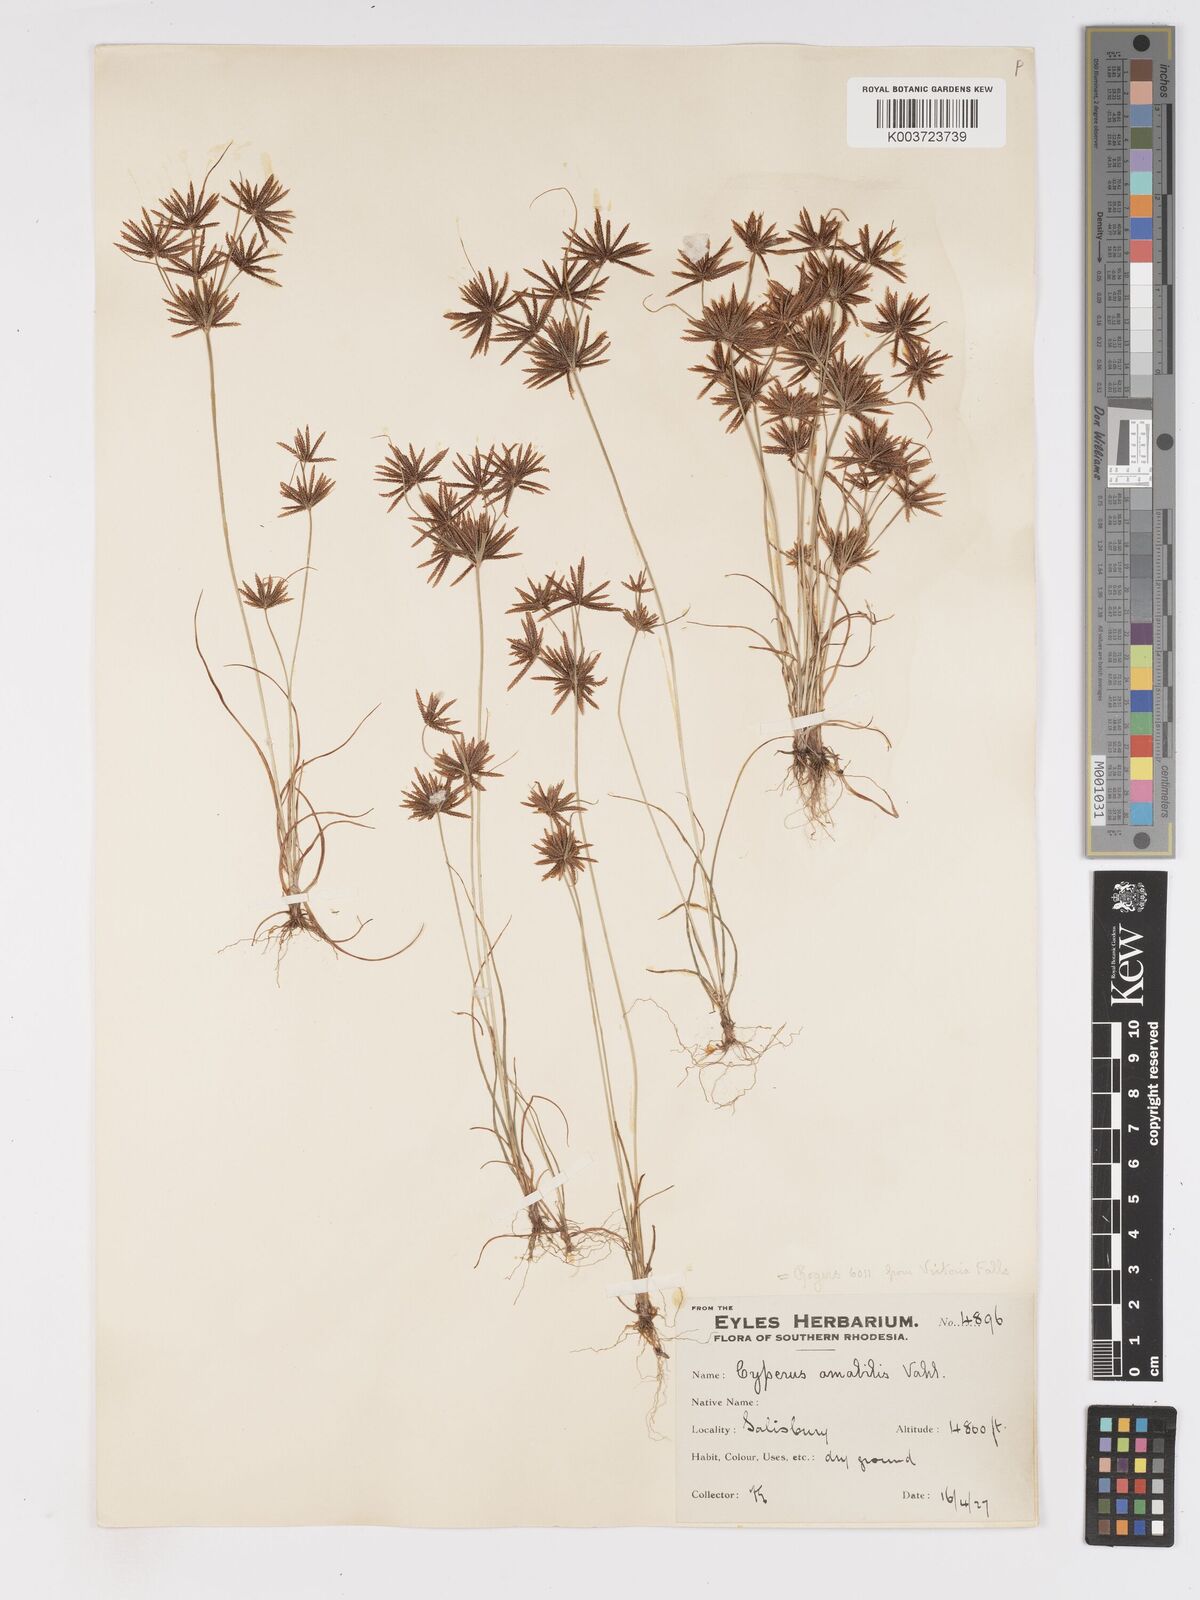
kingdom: Plantae
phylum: Tracheophyta
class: Liliopsida
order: Poales
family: Cyperaceae
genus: Cyperus
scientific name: Cyperus amabilis
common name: Foothill flat sedge
